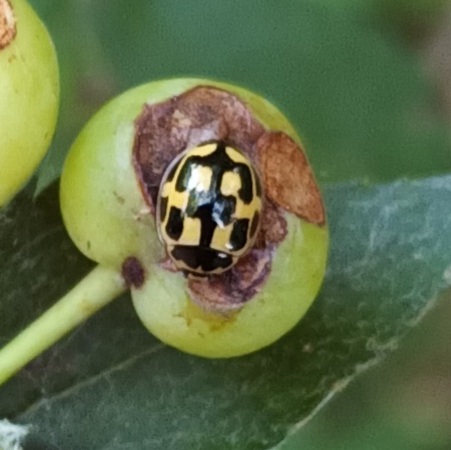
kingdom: Animalia
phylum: Arthropoda
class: Insecta
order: Coleoptera
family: Coccinellidae
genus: Propylaea
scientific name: Propylaea quatuordecimpunctata
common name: Skakbræt
